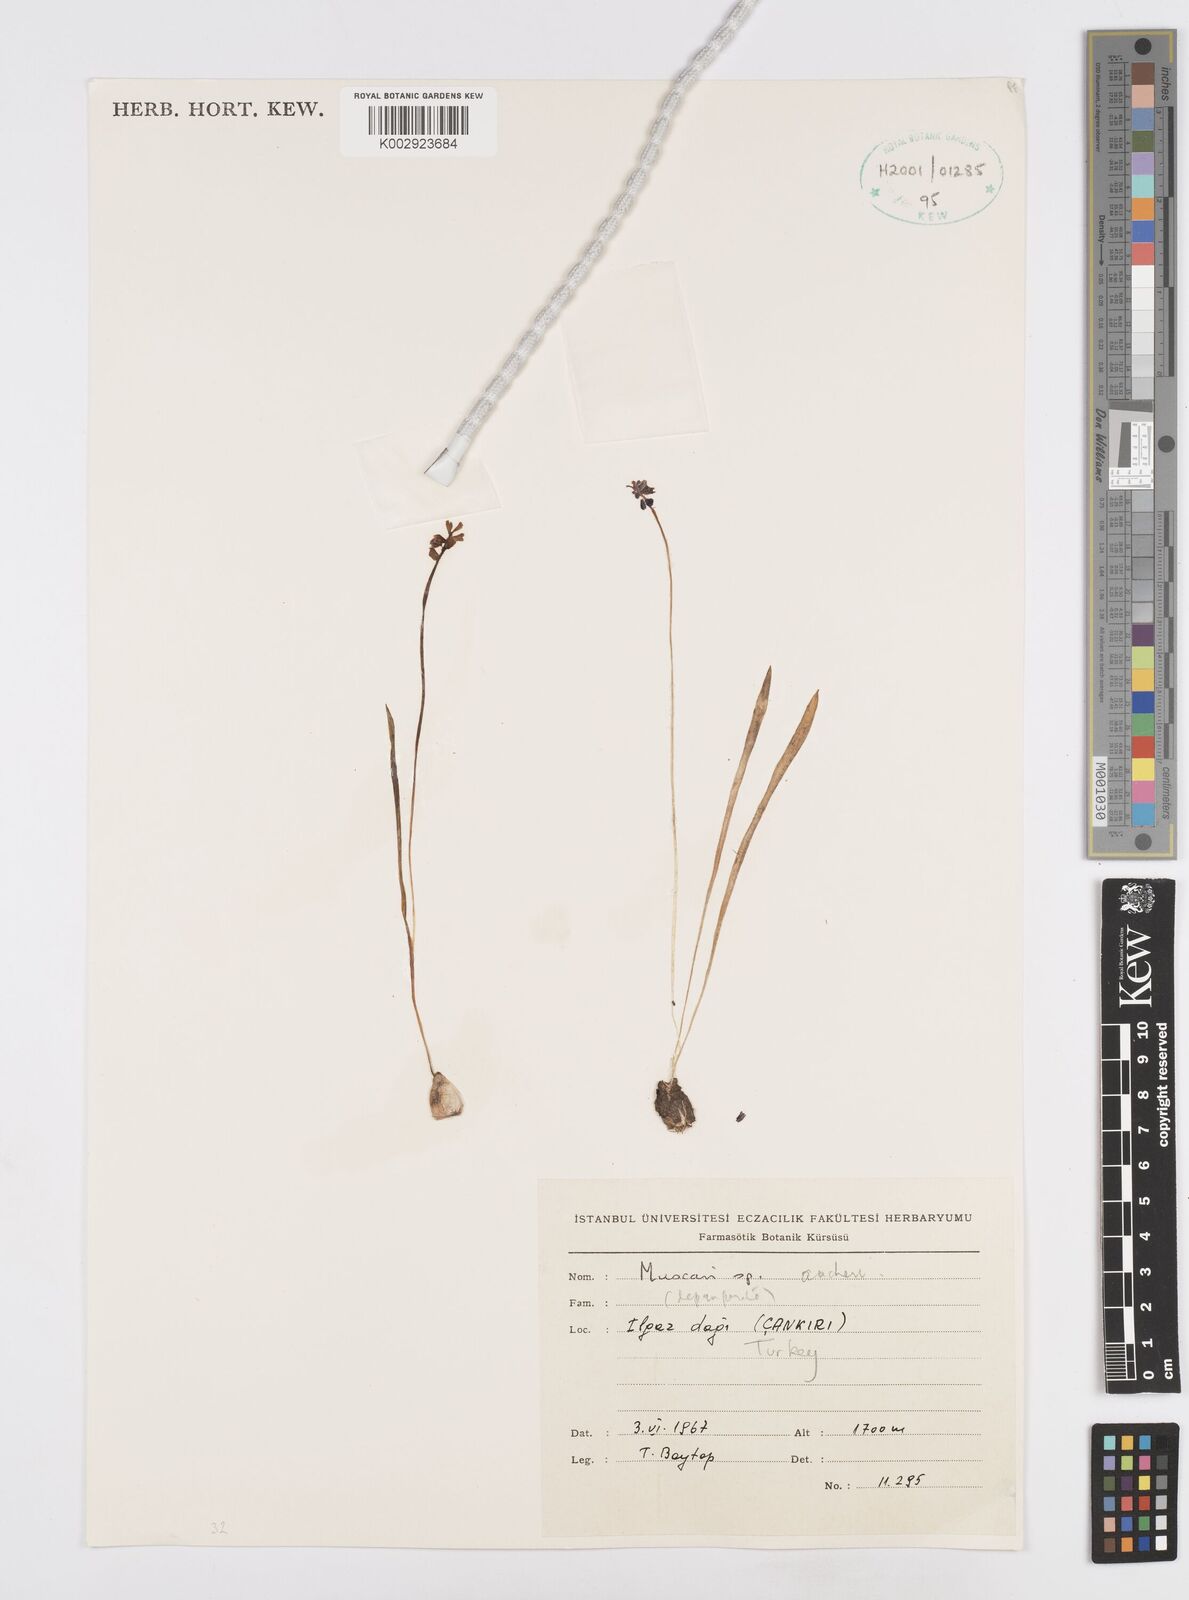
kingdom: Plantae
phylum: Tracheophyta
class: Liliopsida
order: Asparagales
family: Asparagaceae
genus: Muscari
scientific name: Muscari aucheri
